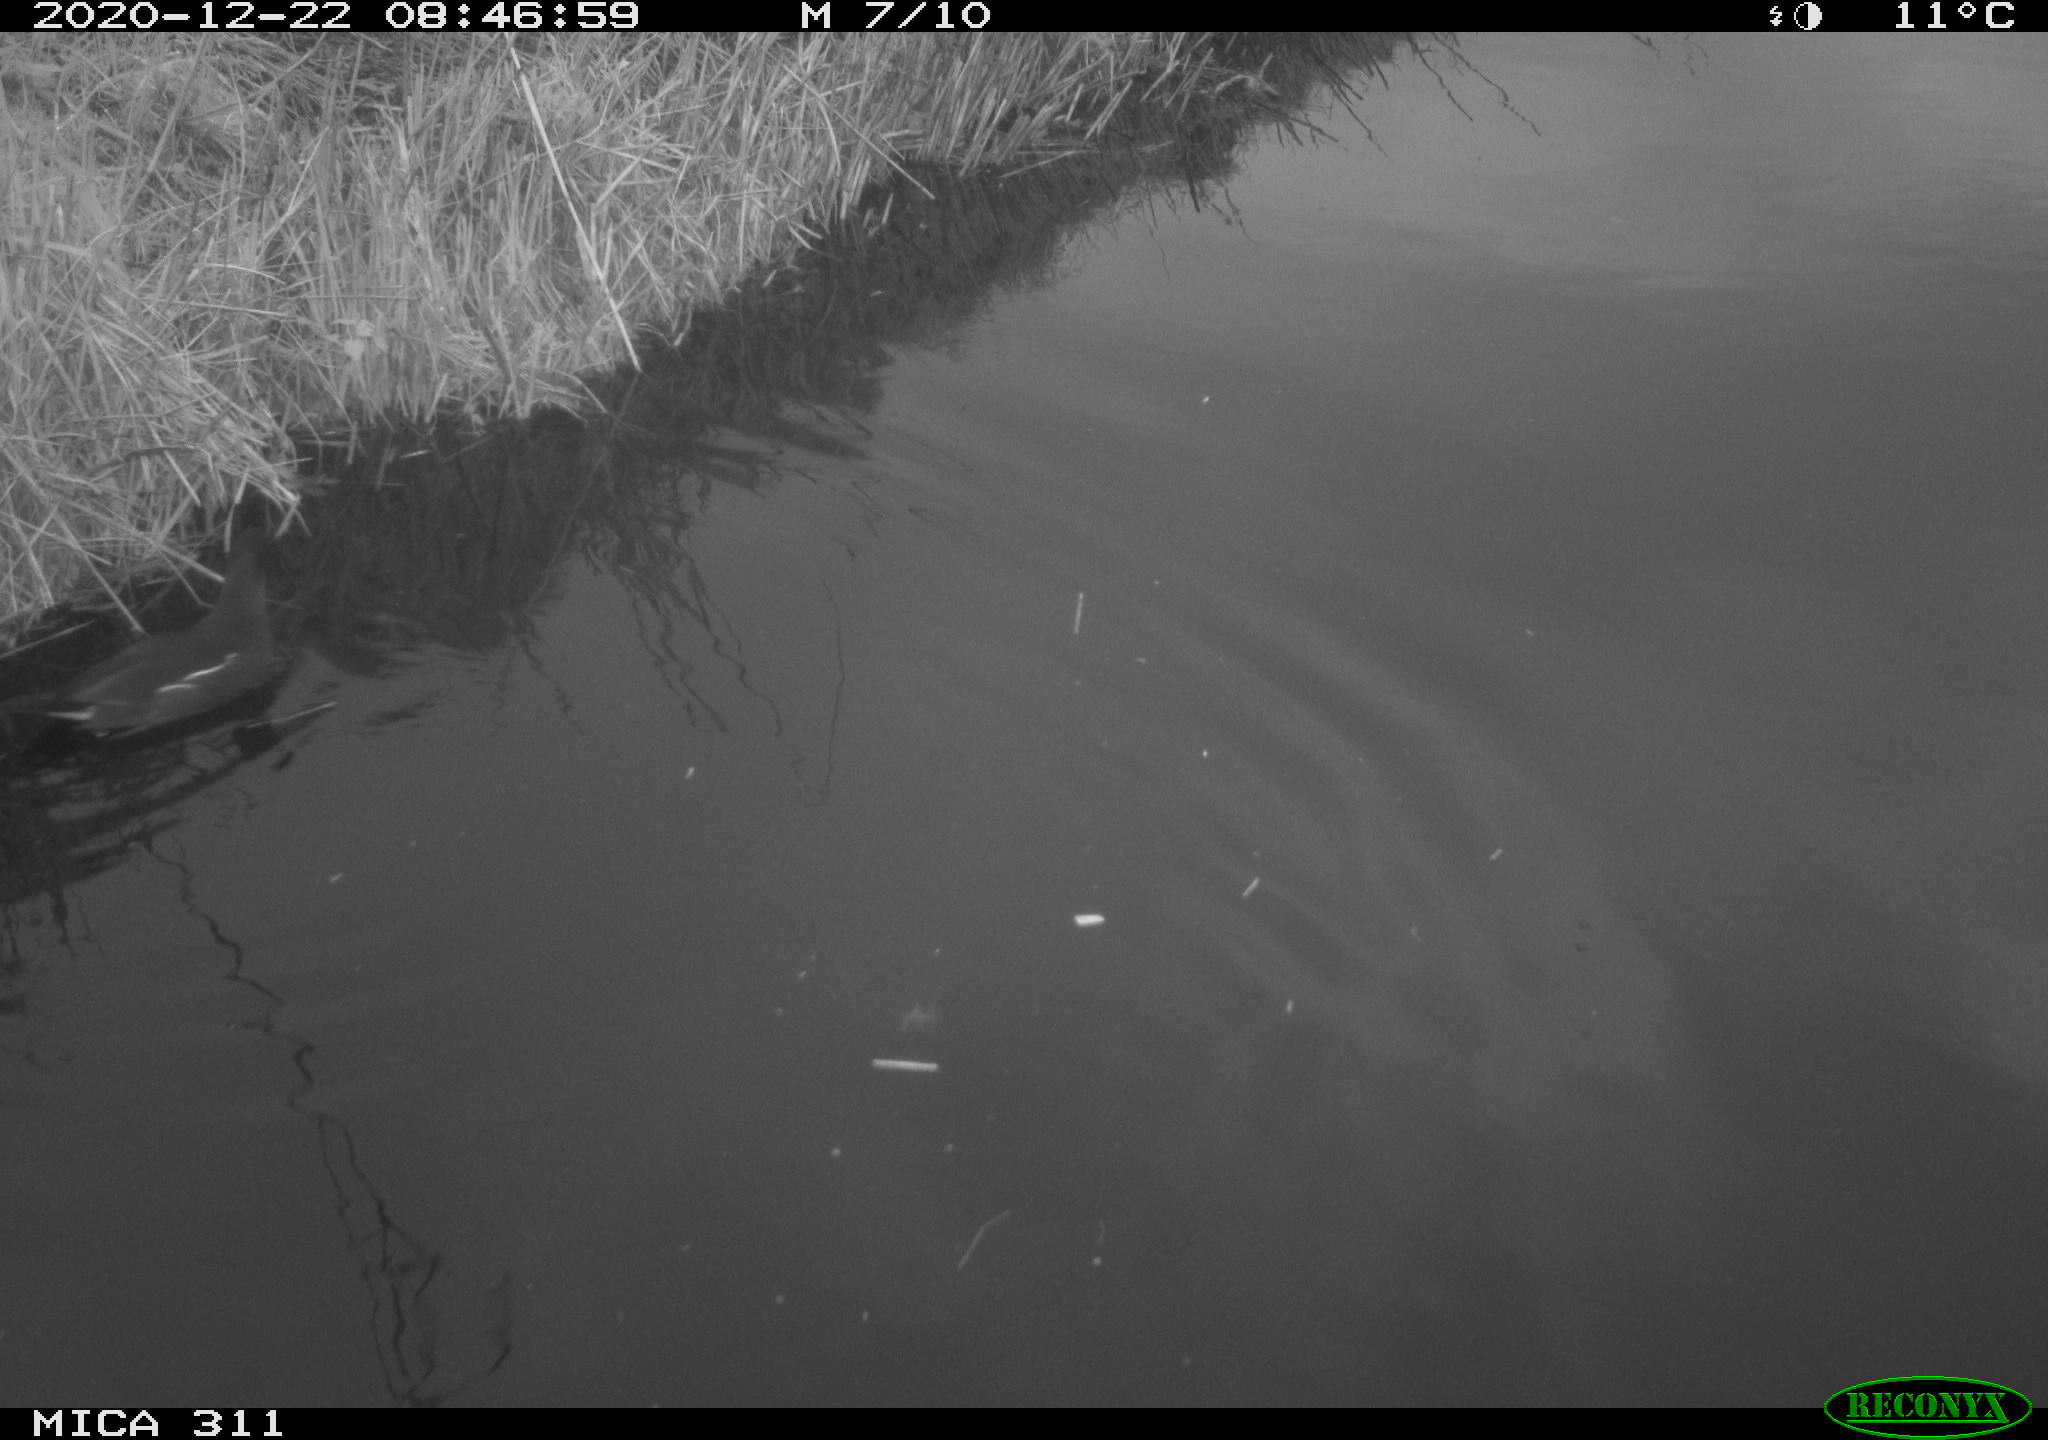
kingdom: Animalia
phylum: Chordata
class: Aves
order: Gruiformes
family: Rallidae
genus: Gallinula
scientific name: Gallinula chloropus
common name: Common moorhen
